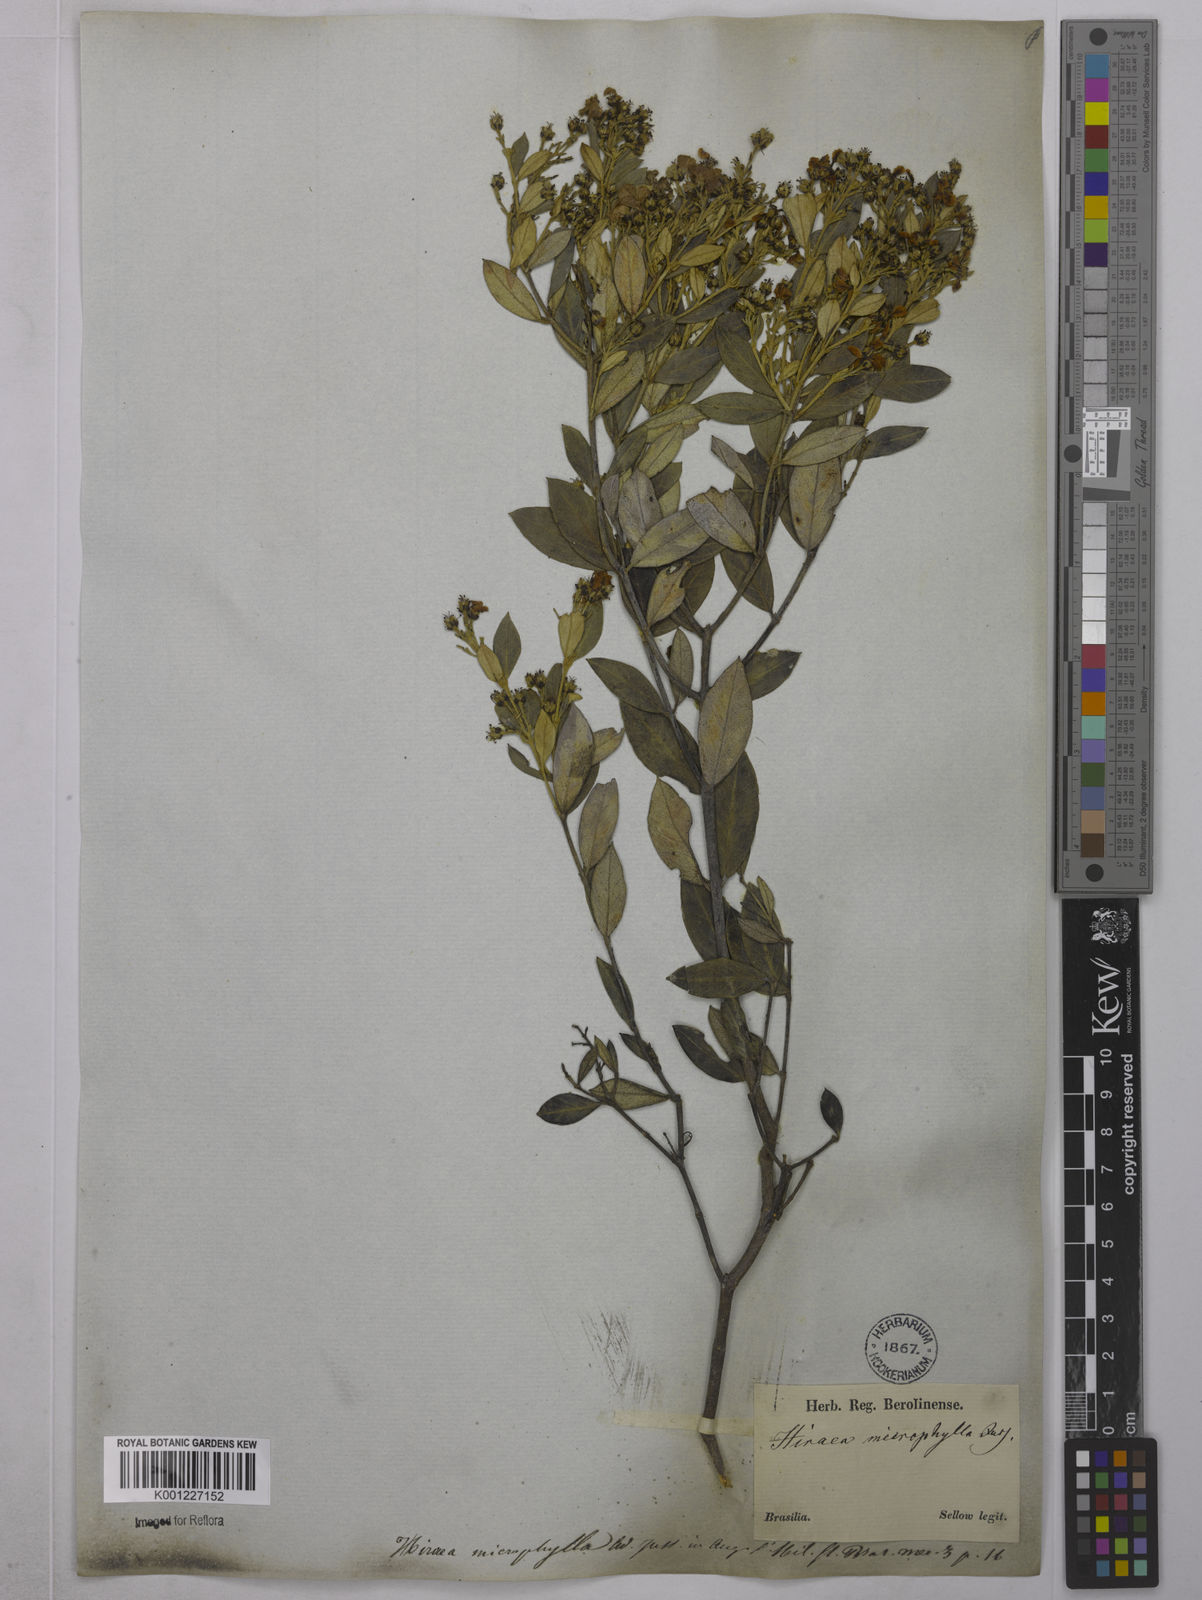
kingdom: Plantae
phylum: Tracheophyta
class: Magnoliopsida
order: Malpighiales
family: Malpighiaceae
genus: Glicophyllum
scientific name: Glicophyllum microphyllum
